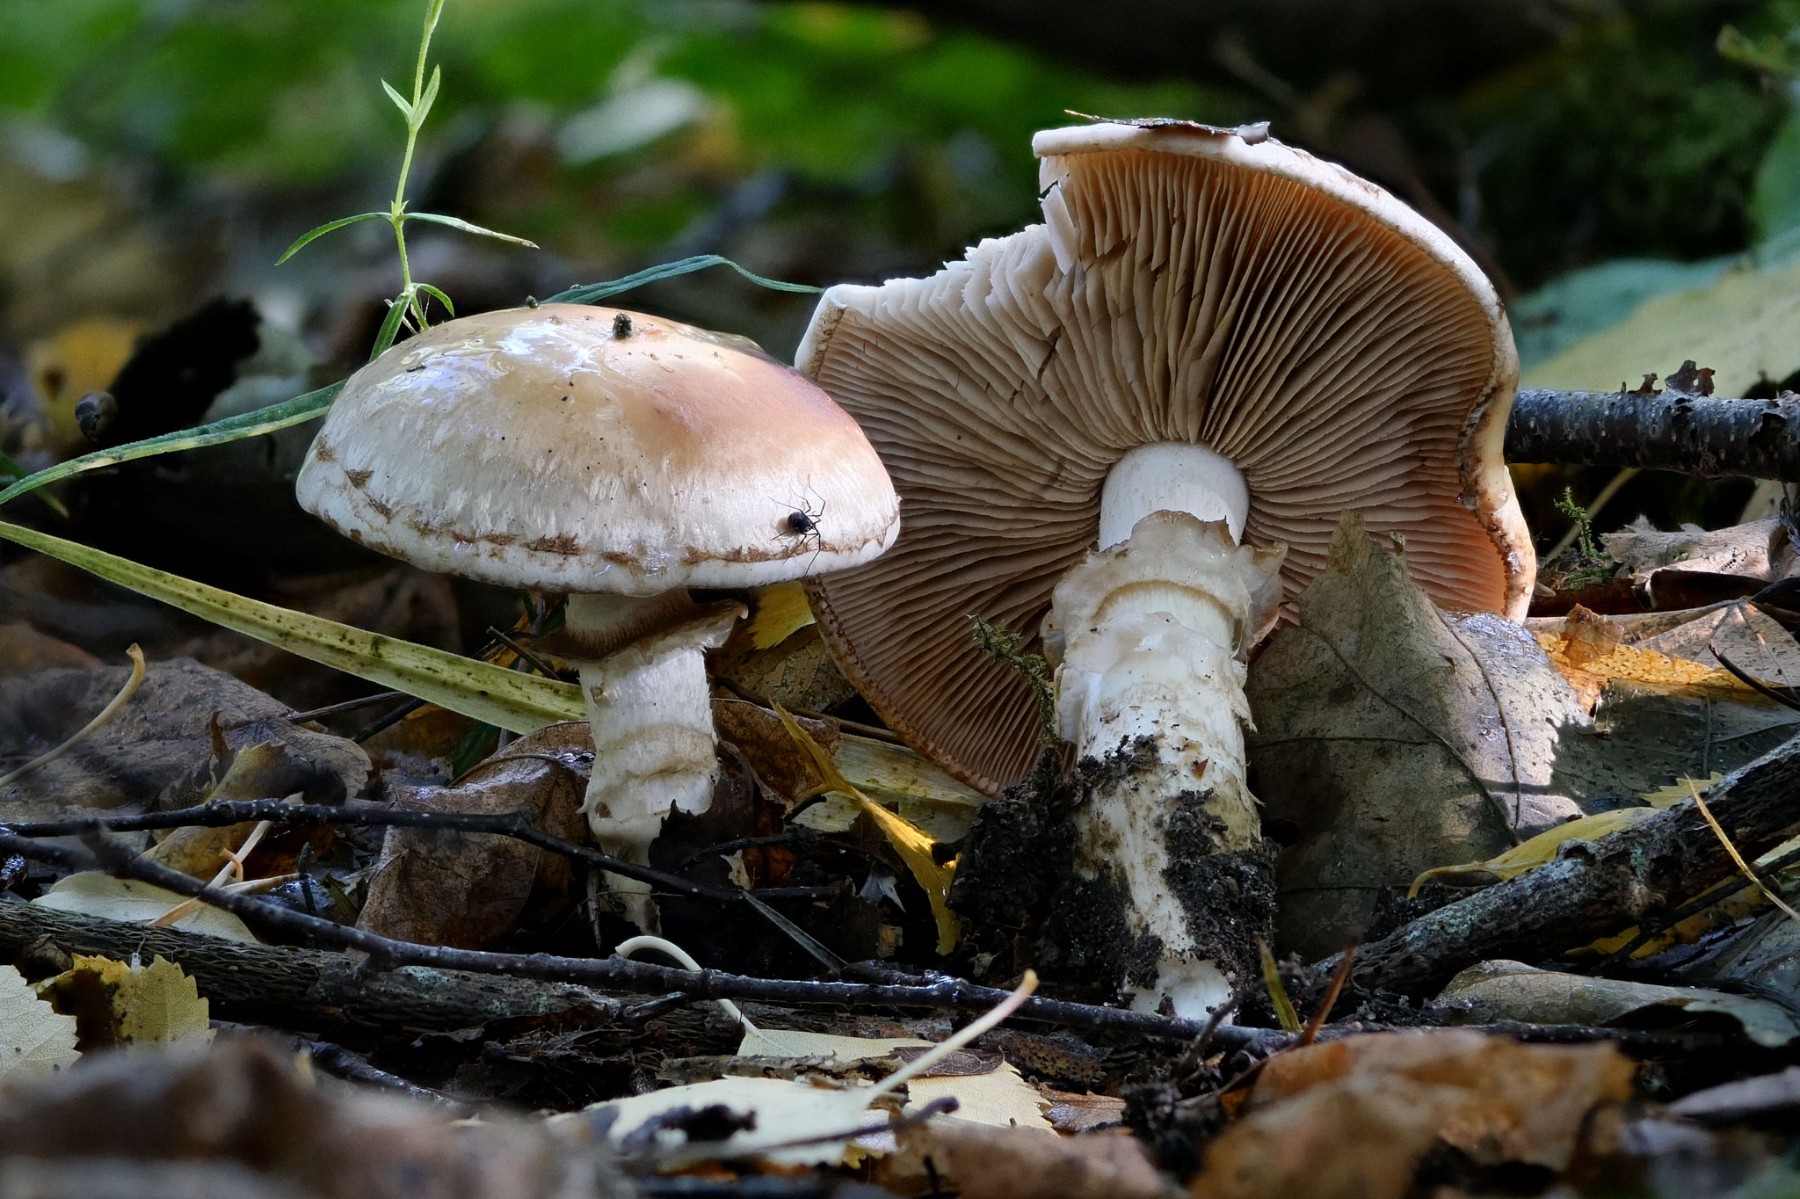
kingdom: Fungi
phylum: Basidiomycota
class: Agaricomycetes
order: Agaricales
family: Hymenogastraceae
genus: Hebeloma
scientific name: Hebeloma radicosum
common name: pælerods-tåreblad
